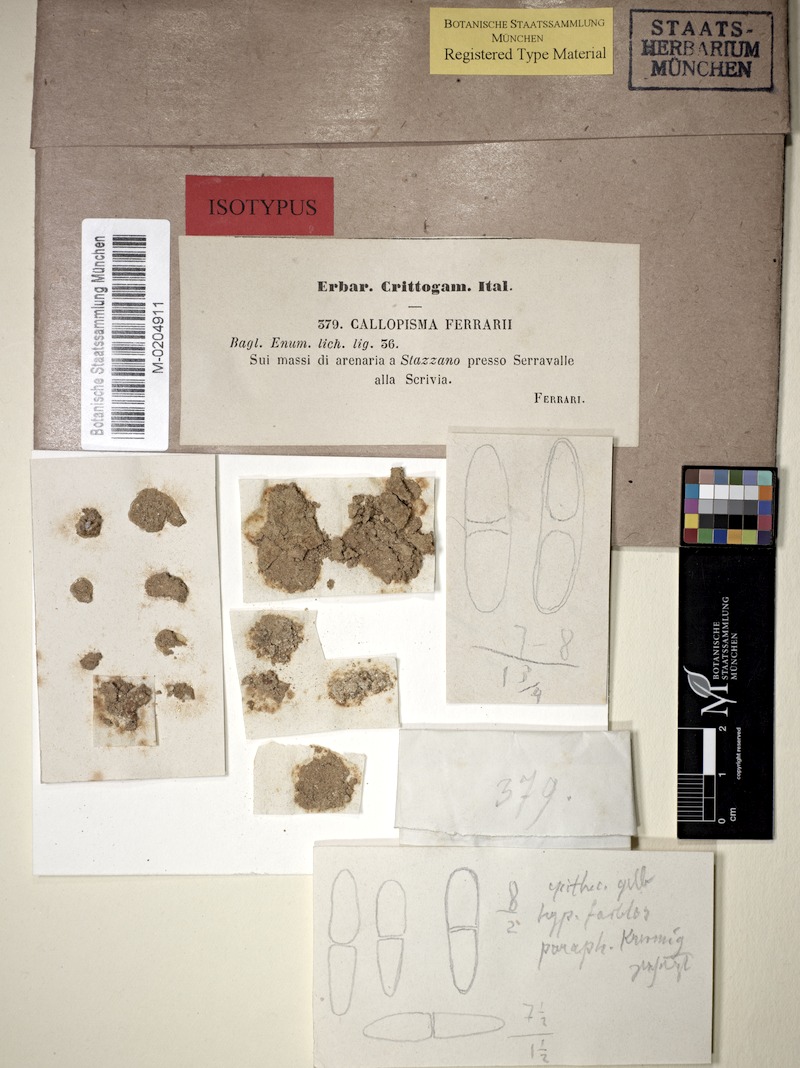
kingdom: Fungi
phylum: Ascomycota
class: Lecanoromycetes
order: Teloschistales
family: Teloschistaceae
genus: Xanthocarpia
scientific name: Xanthocarpia ferrarii
